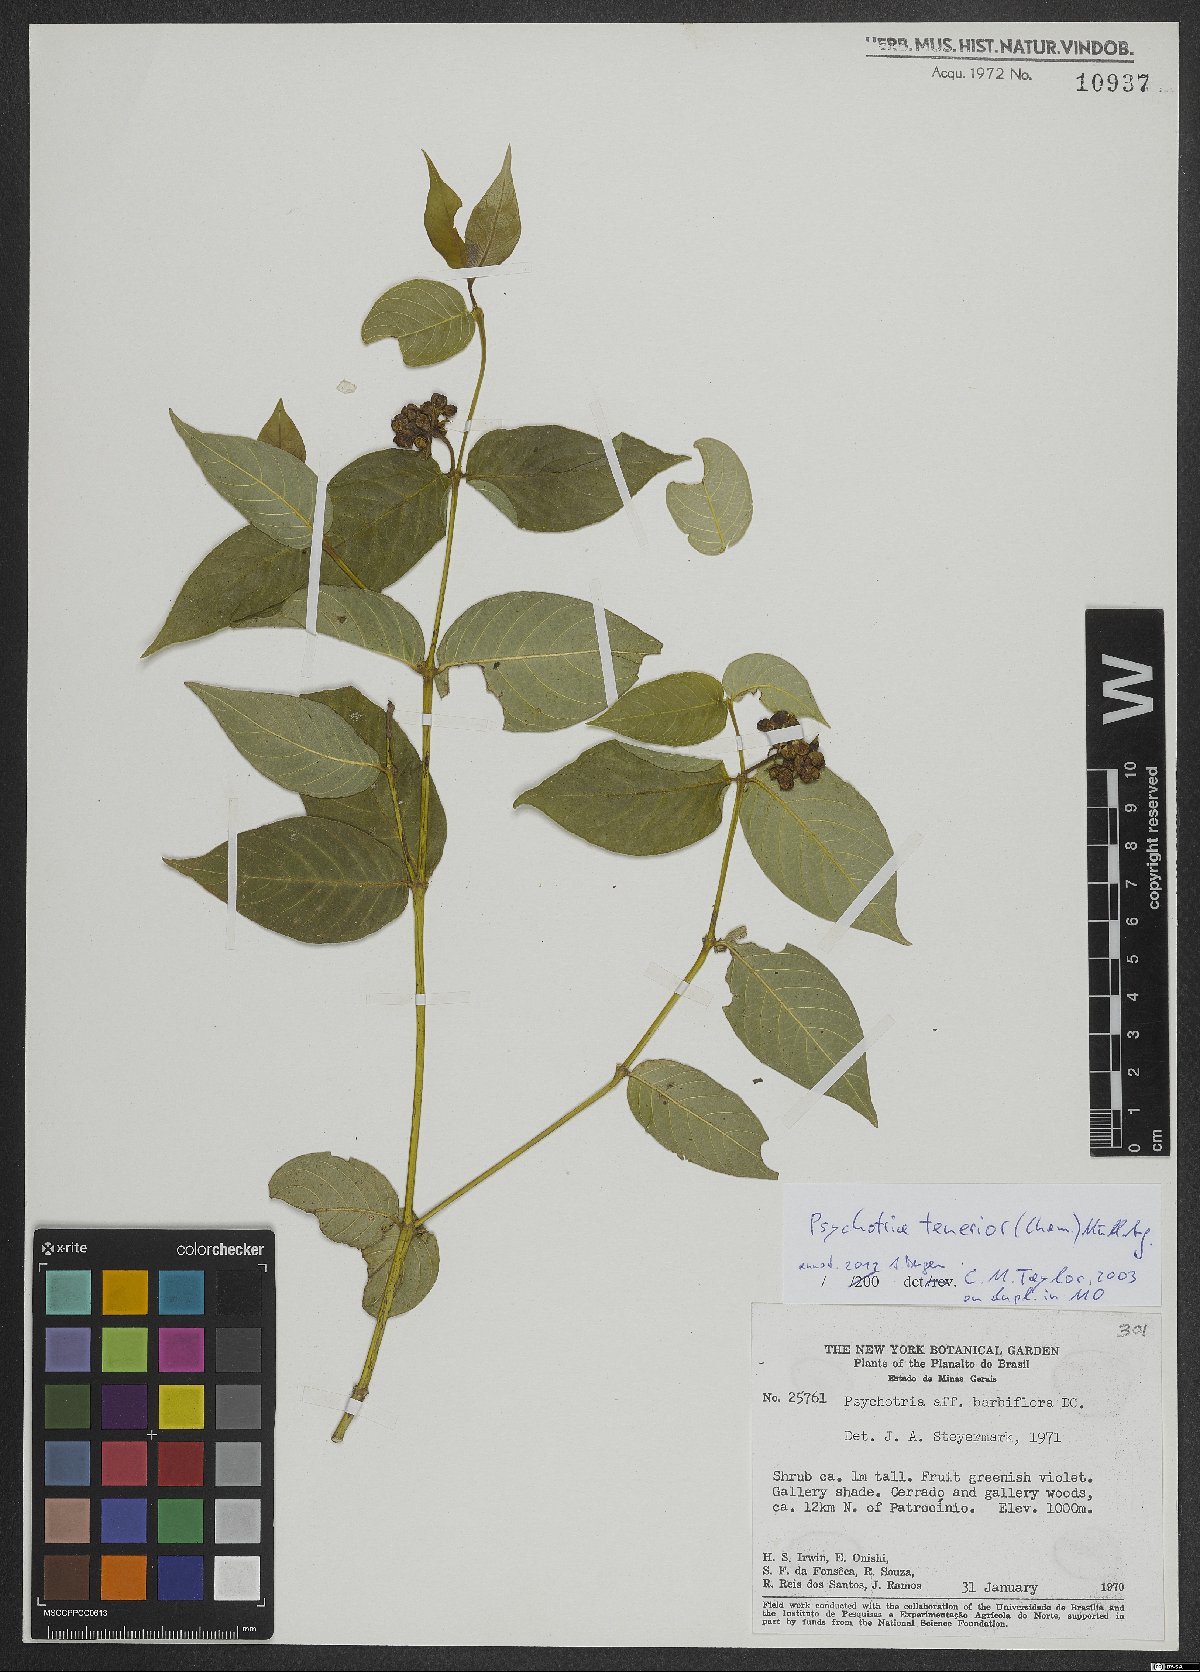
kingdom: Plantae
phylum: Tracheophyta
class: Magnoliopsida
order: Gentianales
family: Rubiaceae
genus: Palicourea
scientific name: Palicourea tenerior
